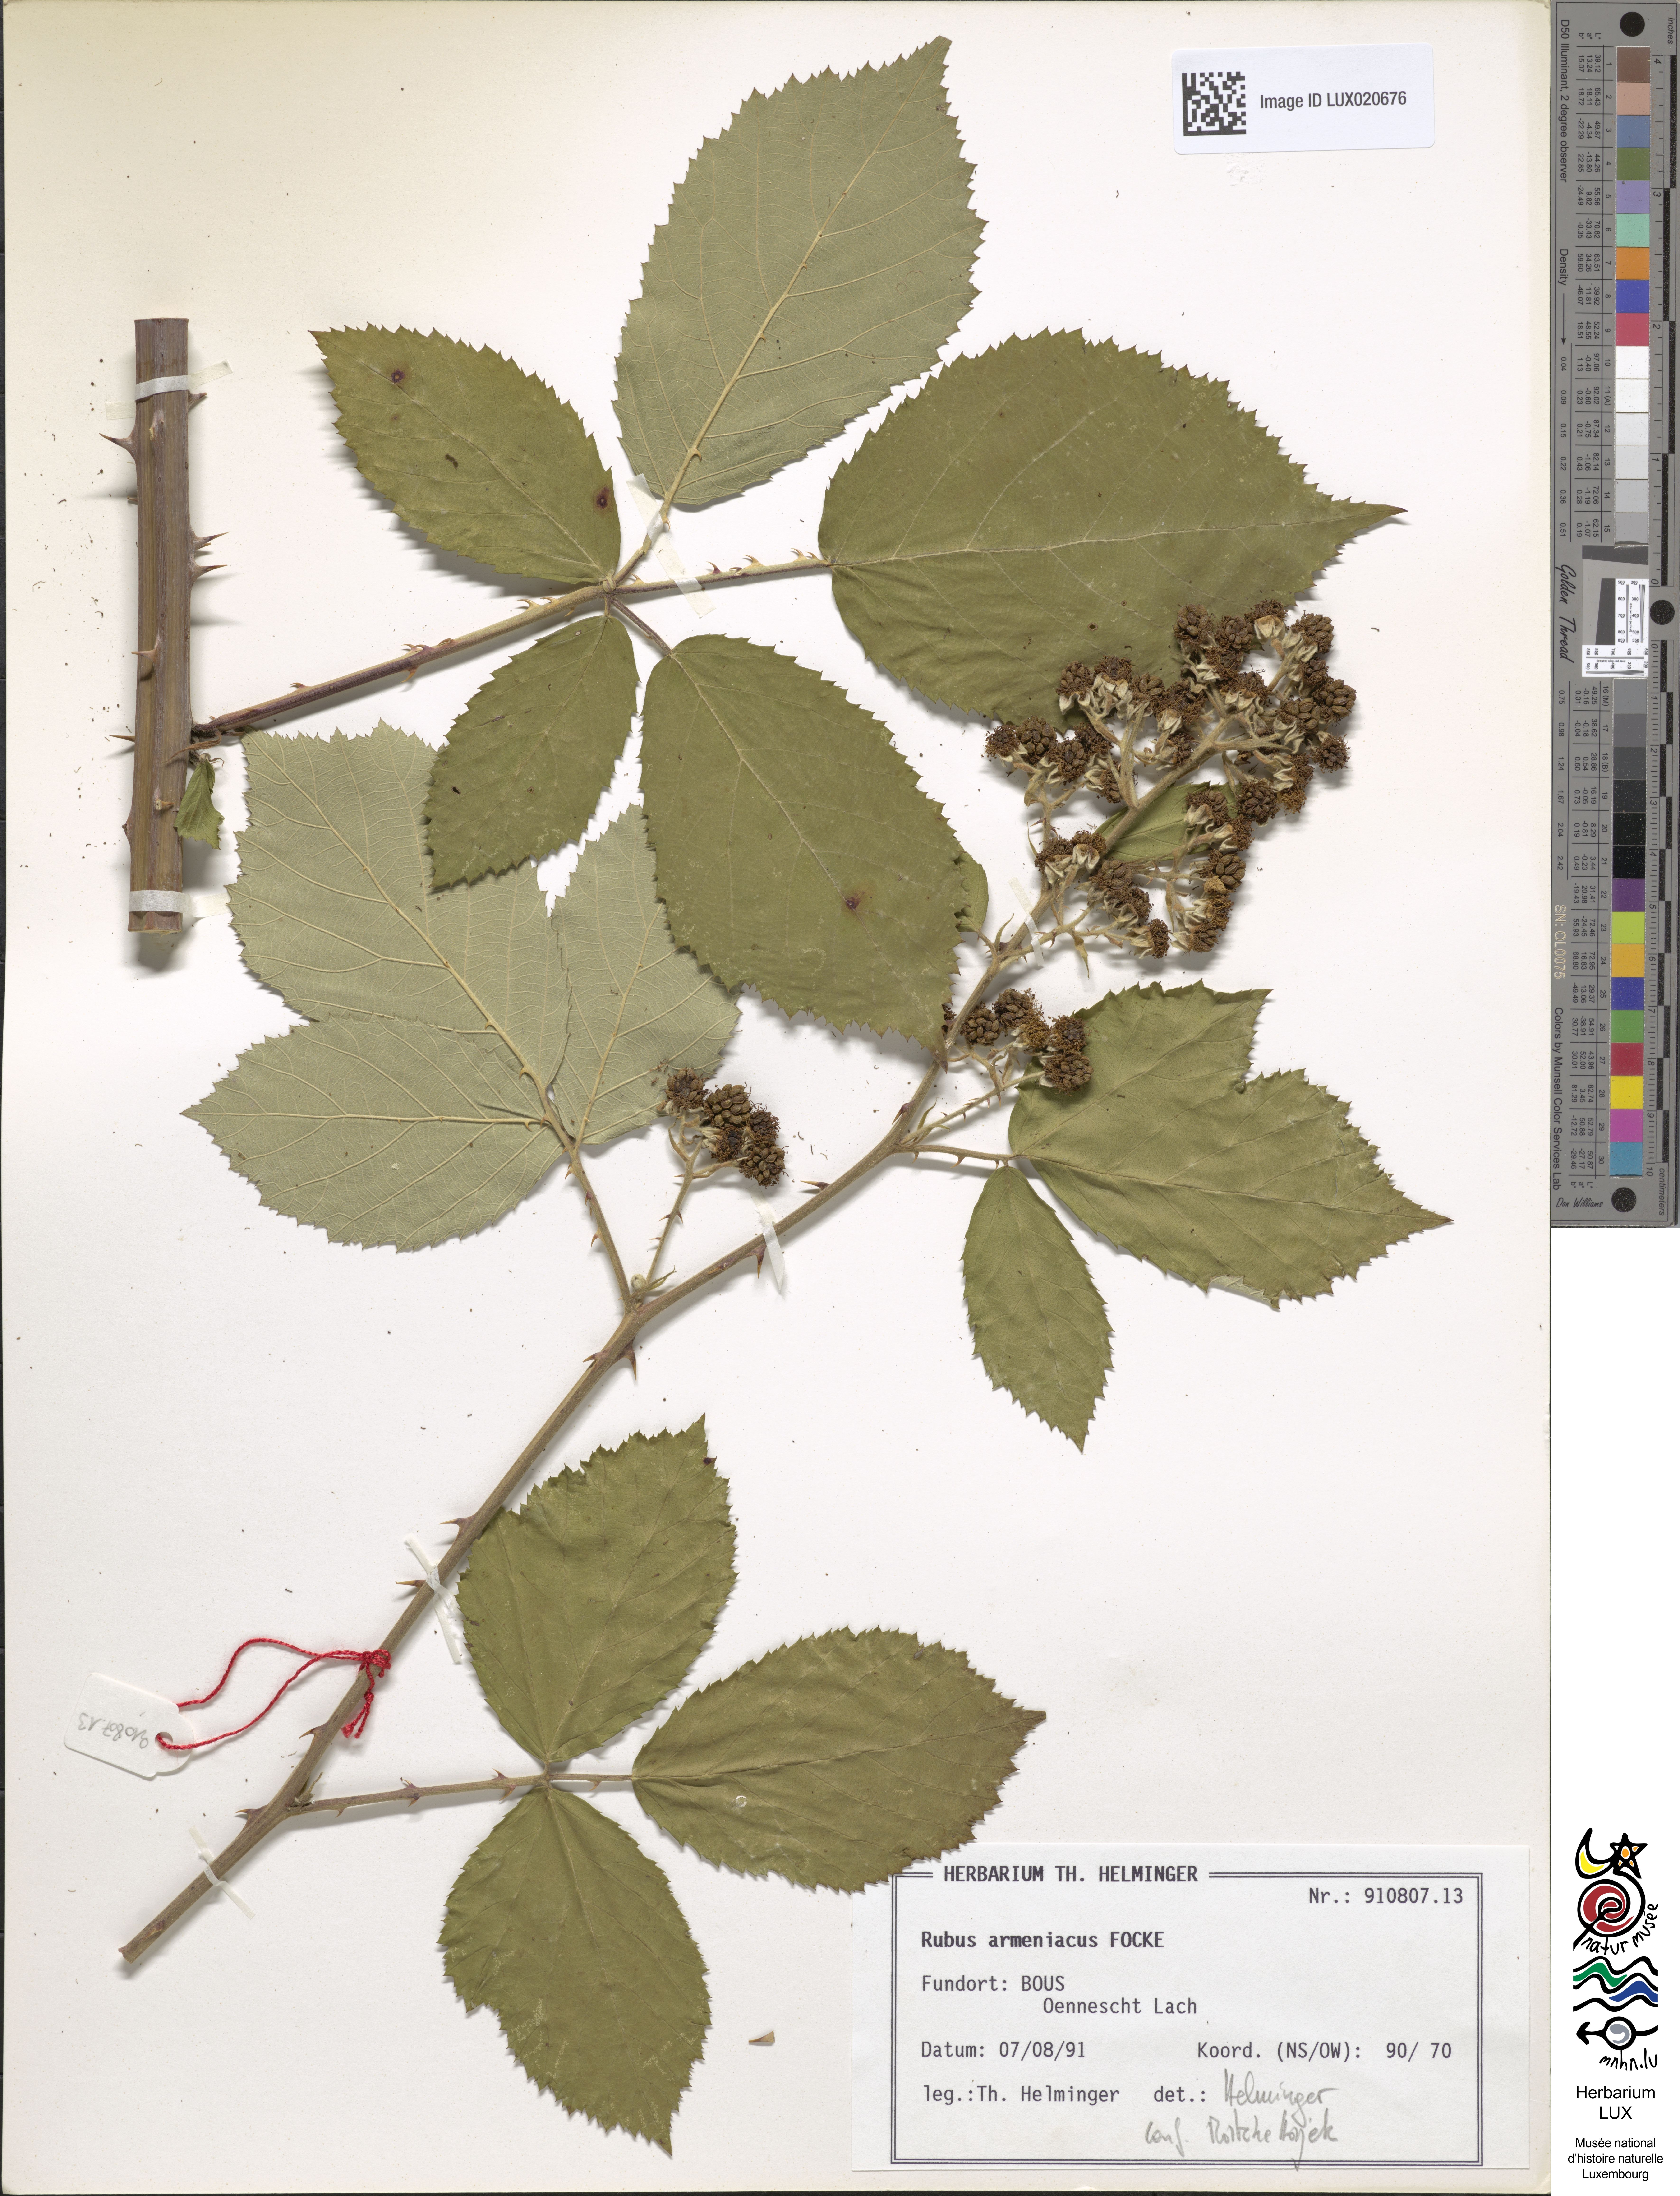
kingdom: Plantae
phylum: Tracheophyta
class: Magnoliopsida
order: Rosales
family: Rosaceae
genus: Rubus
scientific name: Rubus armeniacus
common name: Himalayan blackberry
